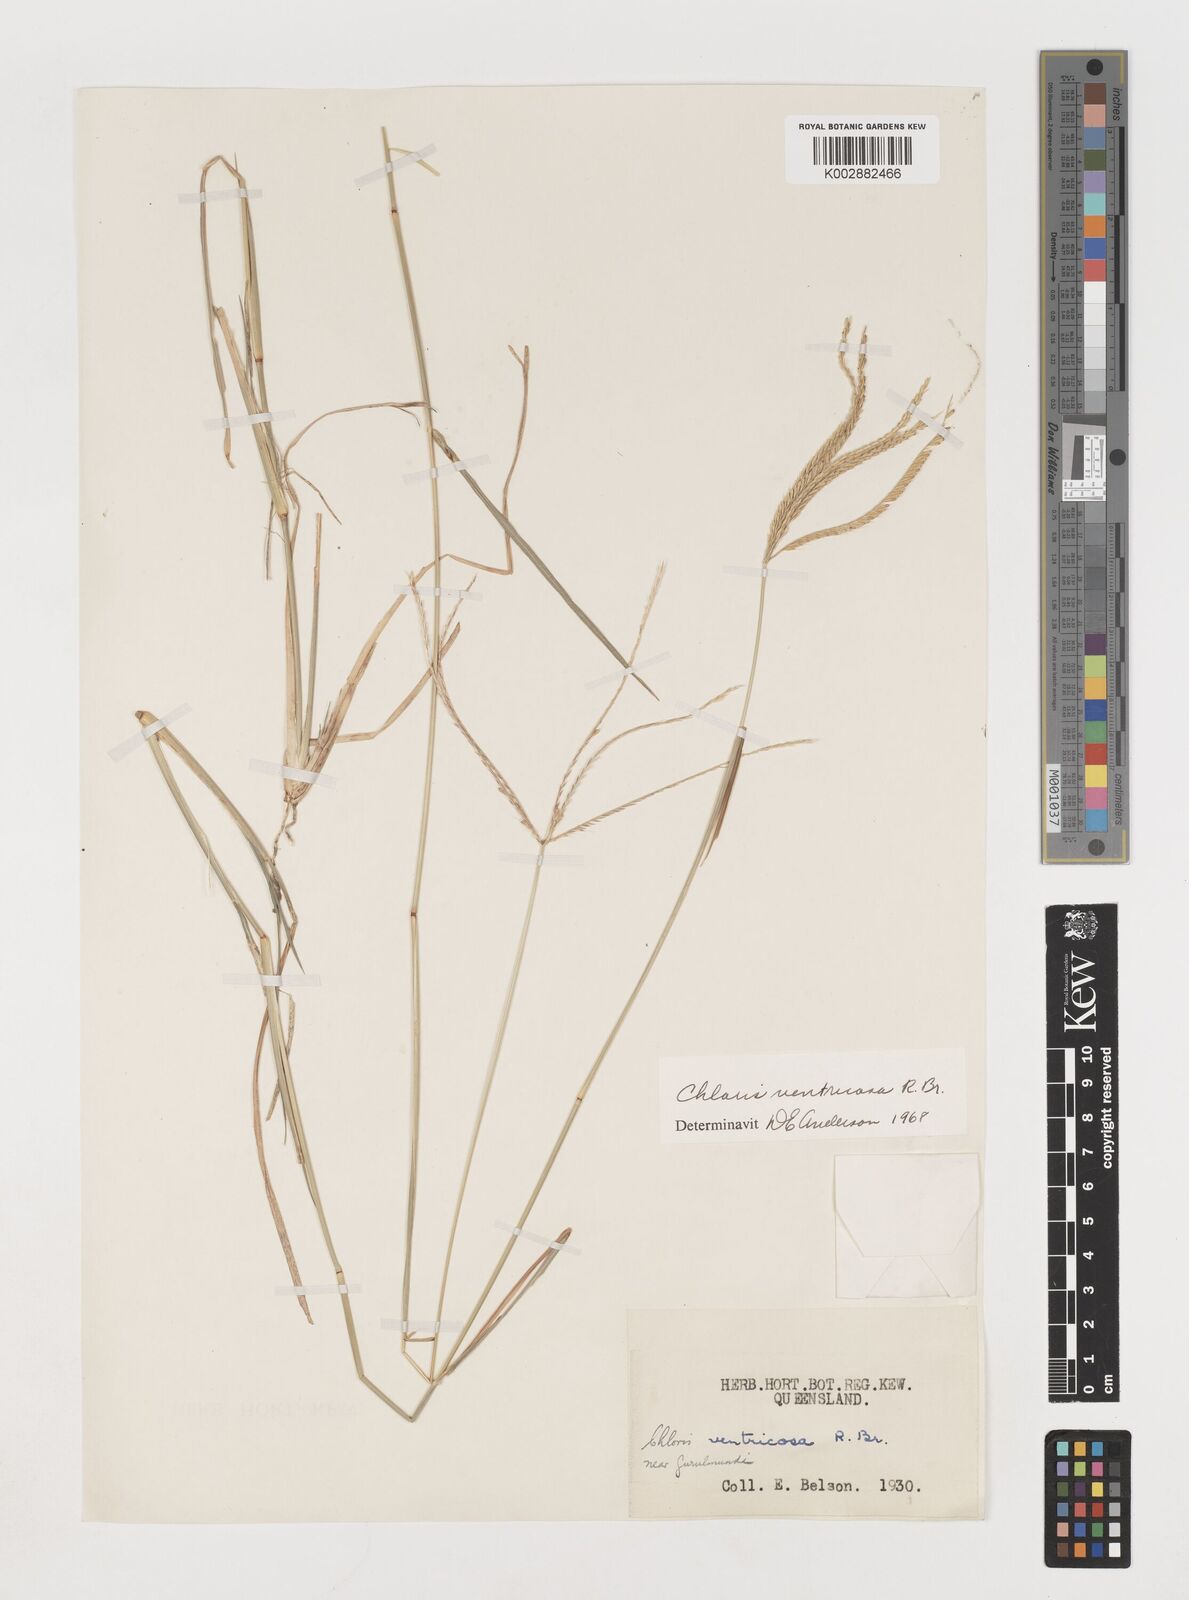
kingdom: Plantae
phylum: Tracheophyta
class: Liliopsida
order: Poales
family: Poaceae
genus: Chloris
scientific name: Chloris ventricosa
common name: Australian windmill grass
